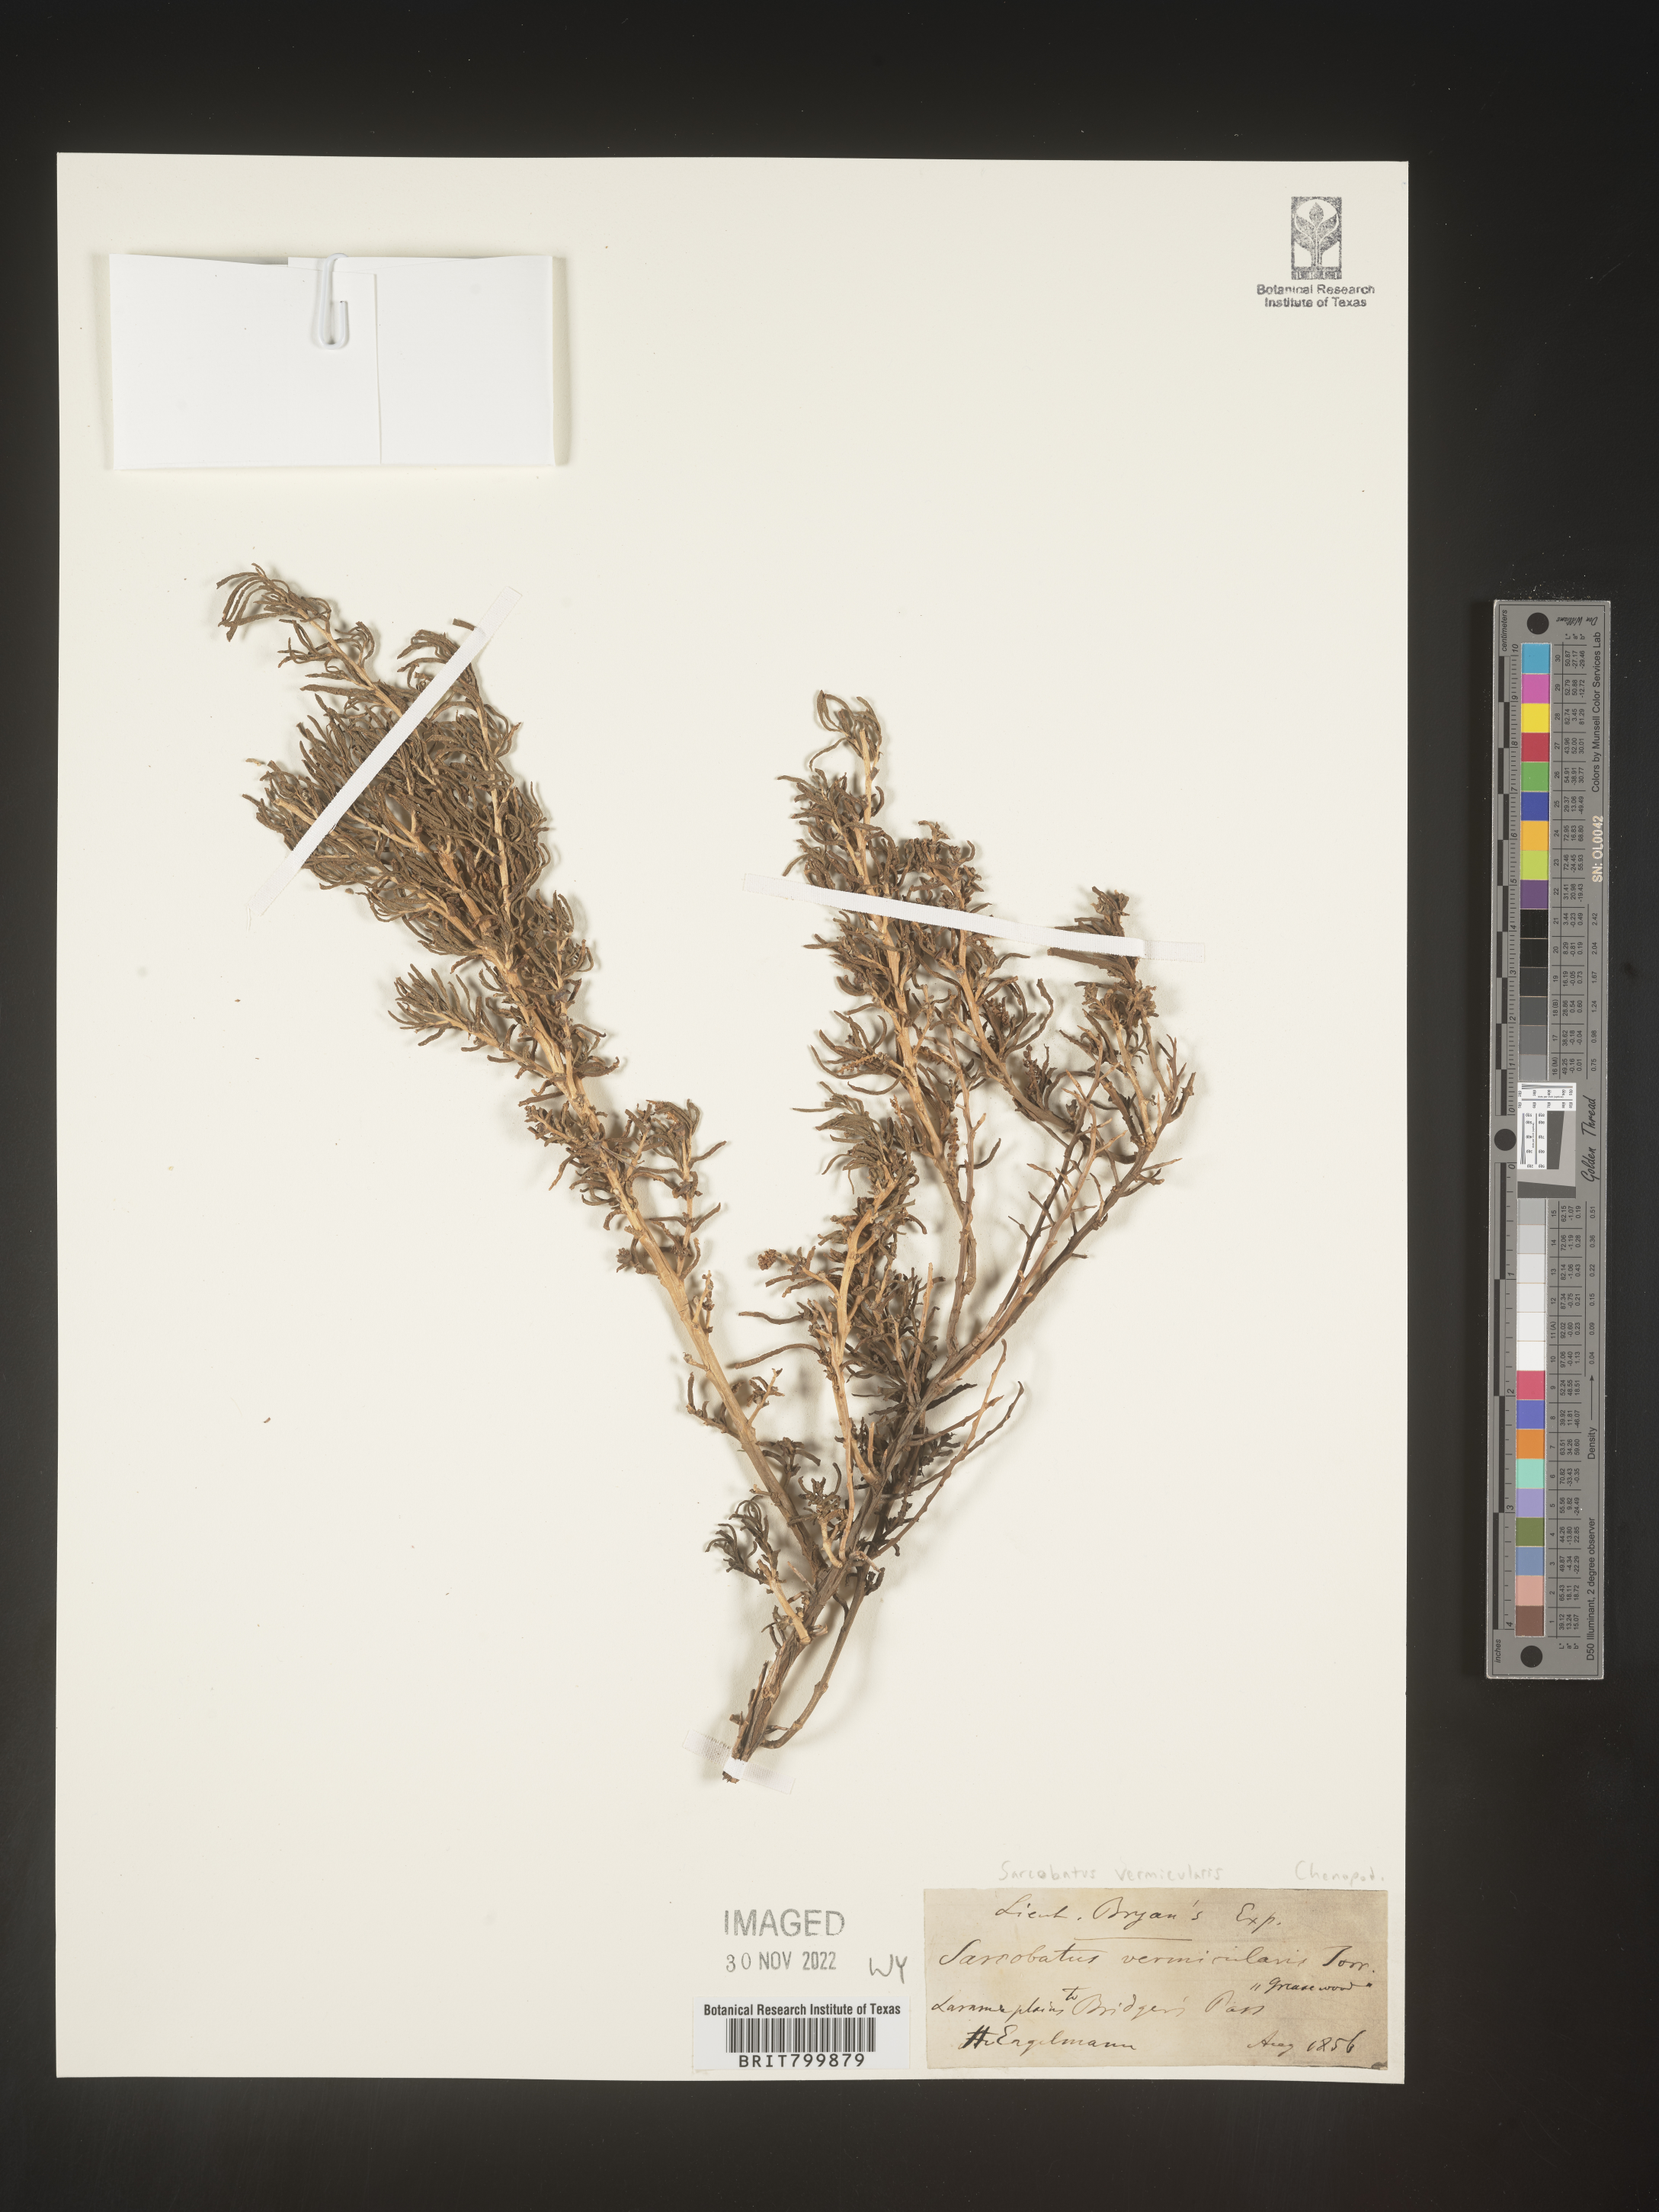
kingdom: Plantae
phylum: Tracheophyta
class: Magnoliopsida
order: Caryophyllales
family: Sarcobataceae
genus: Sarcobatus
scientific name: Sarcobatus vermiculatus
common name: Greasewood
